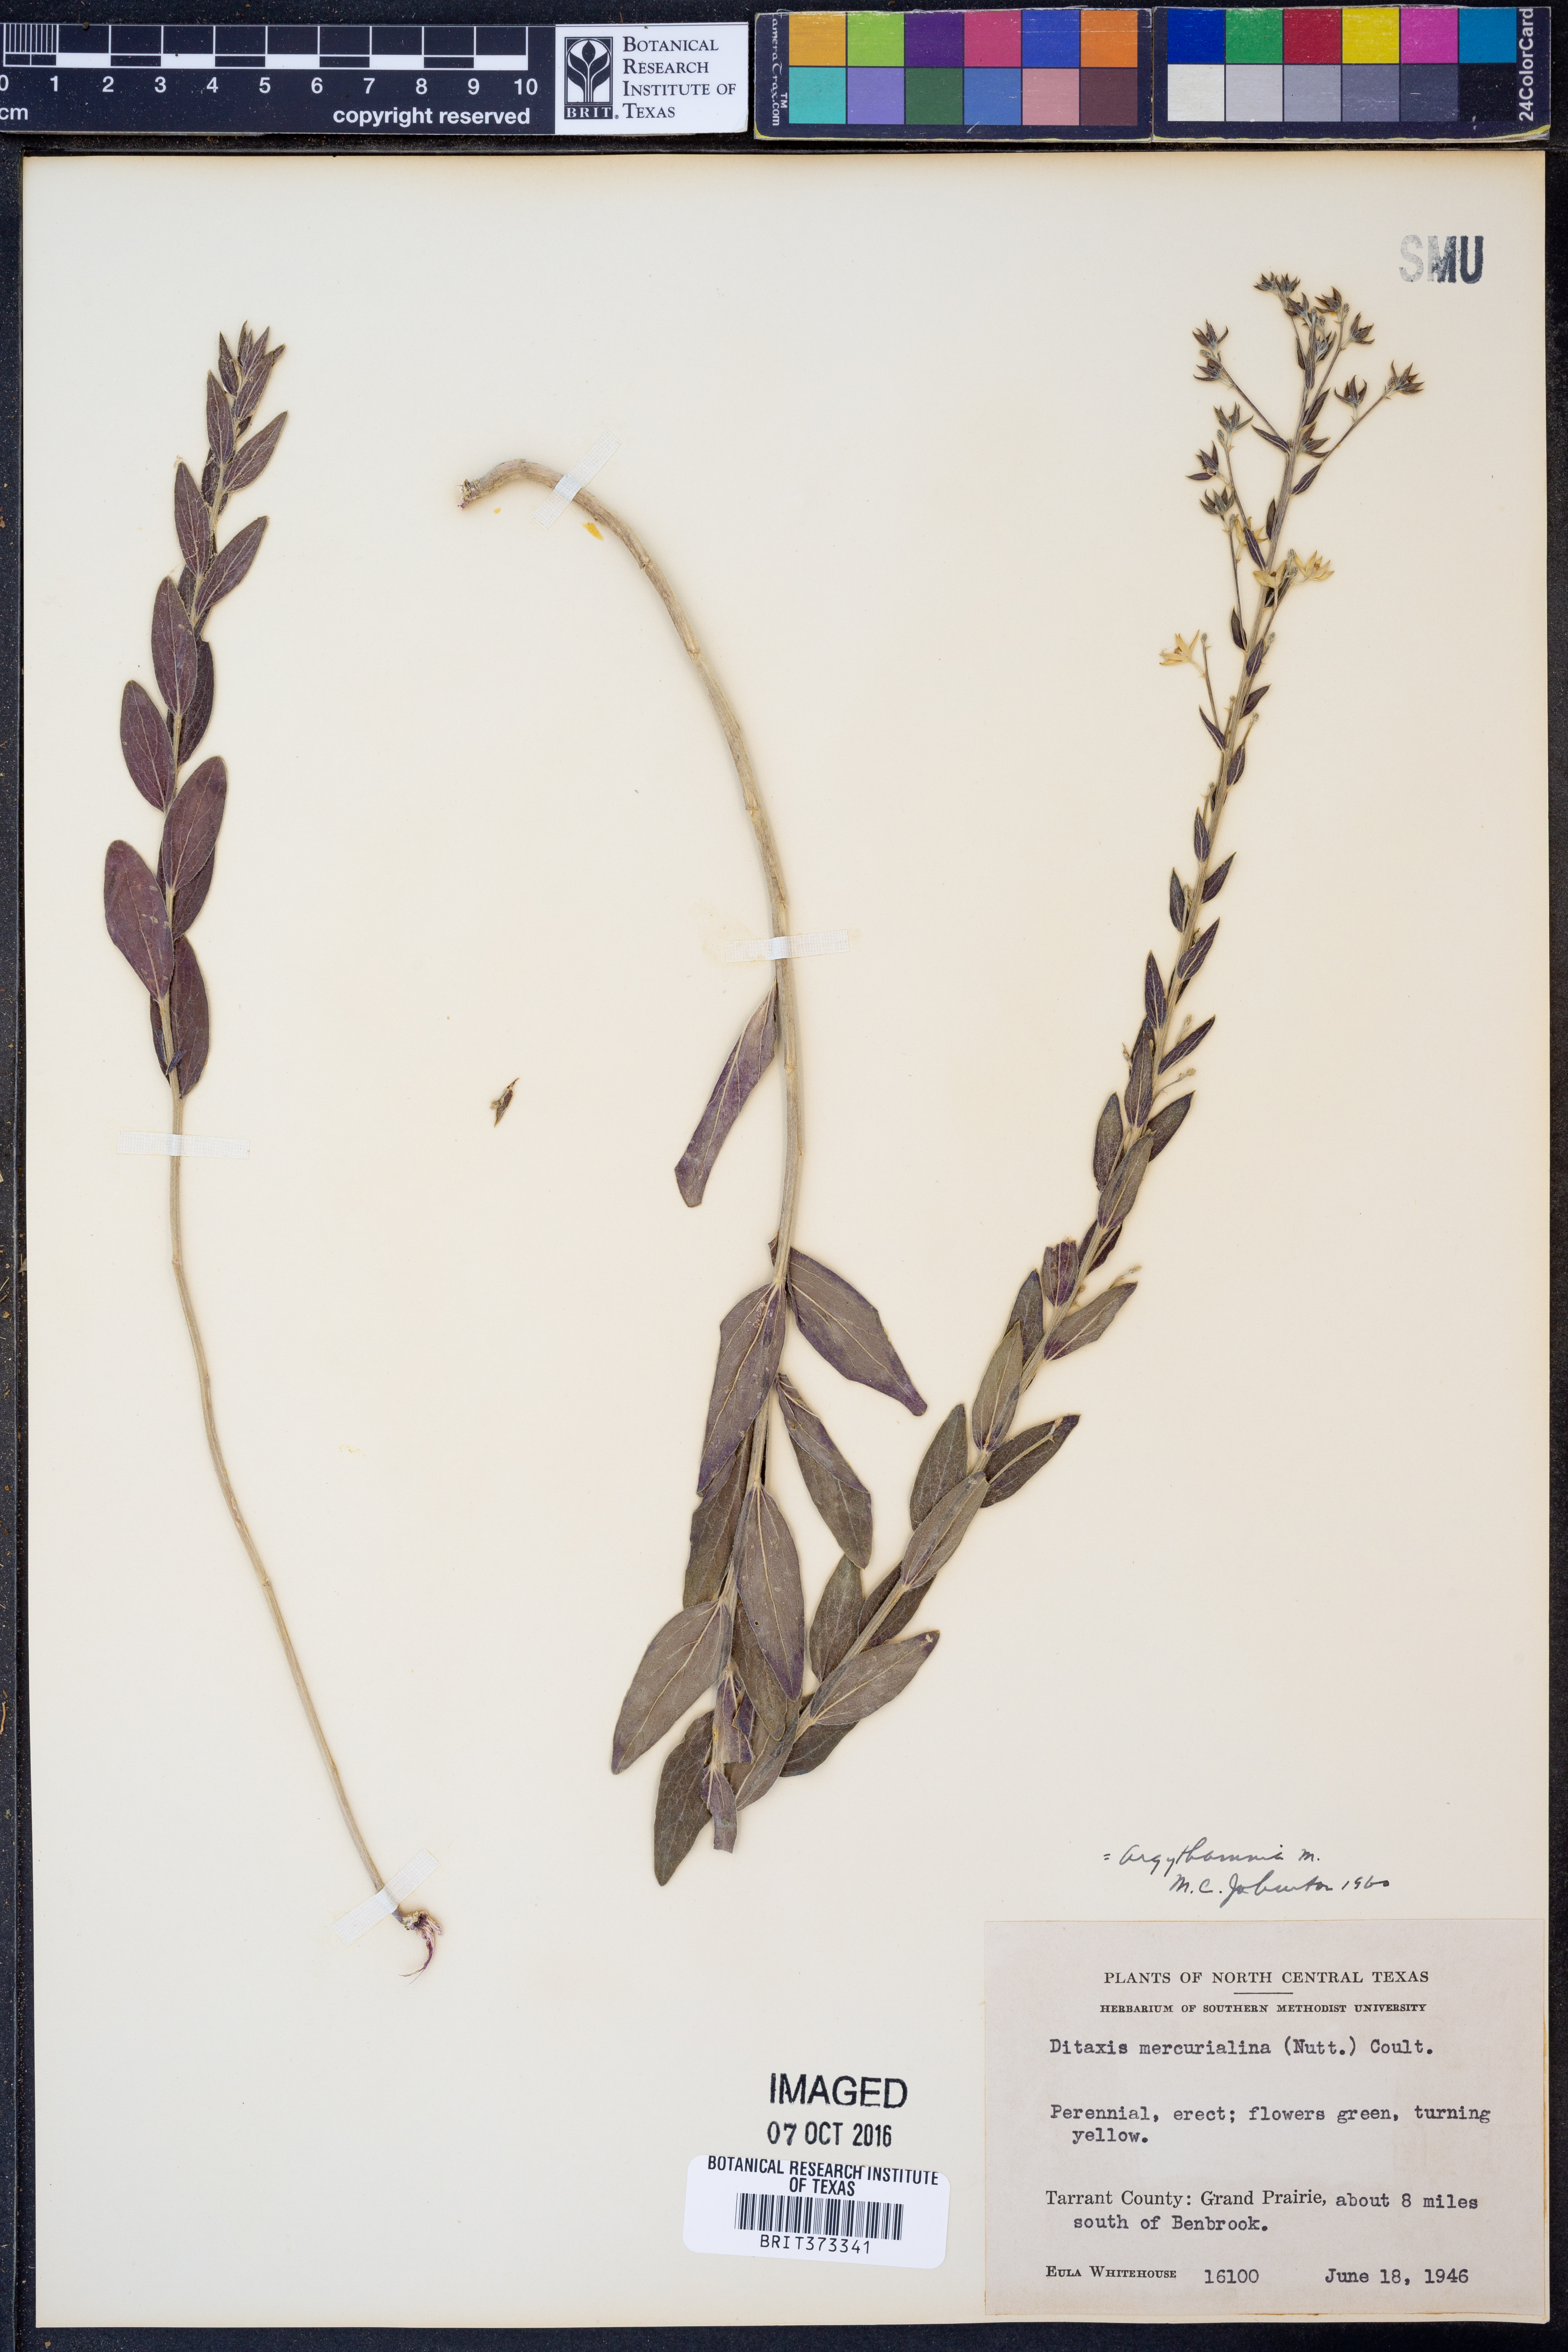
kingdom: Plantae
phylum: Tracheophyta
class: Magnoliopsida
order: Malpighiales
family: Euphorbiaceae
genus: Ditaxis
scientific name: Ditaxis mercurialina
